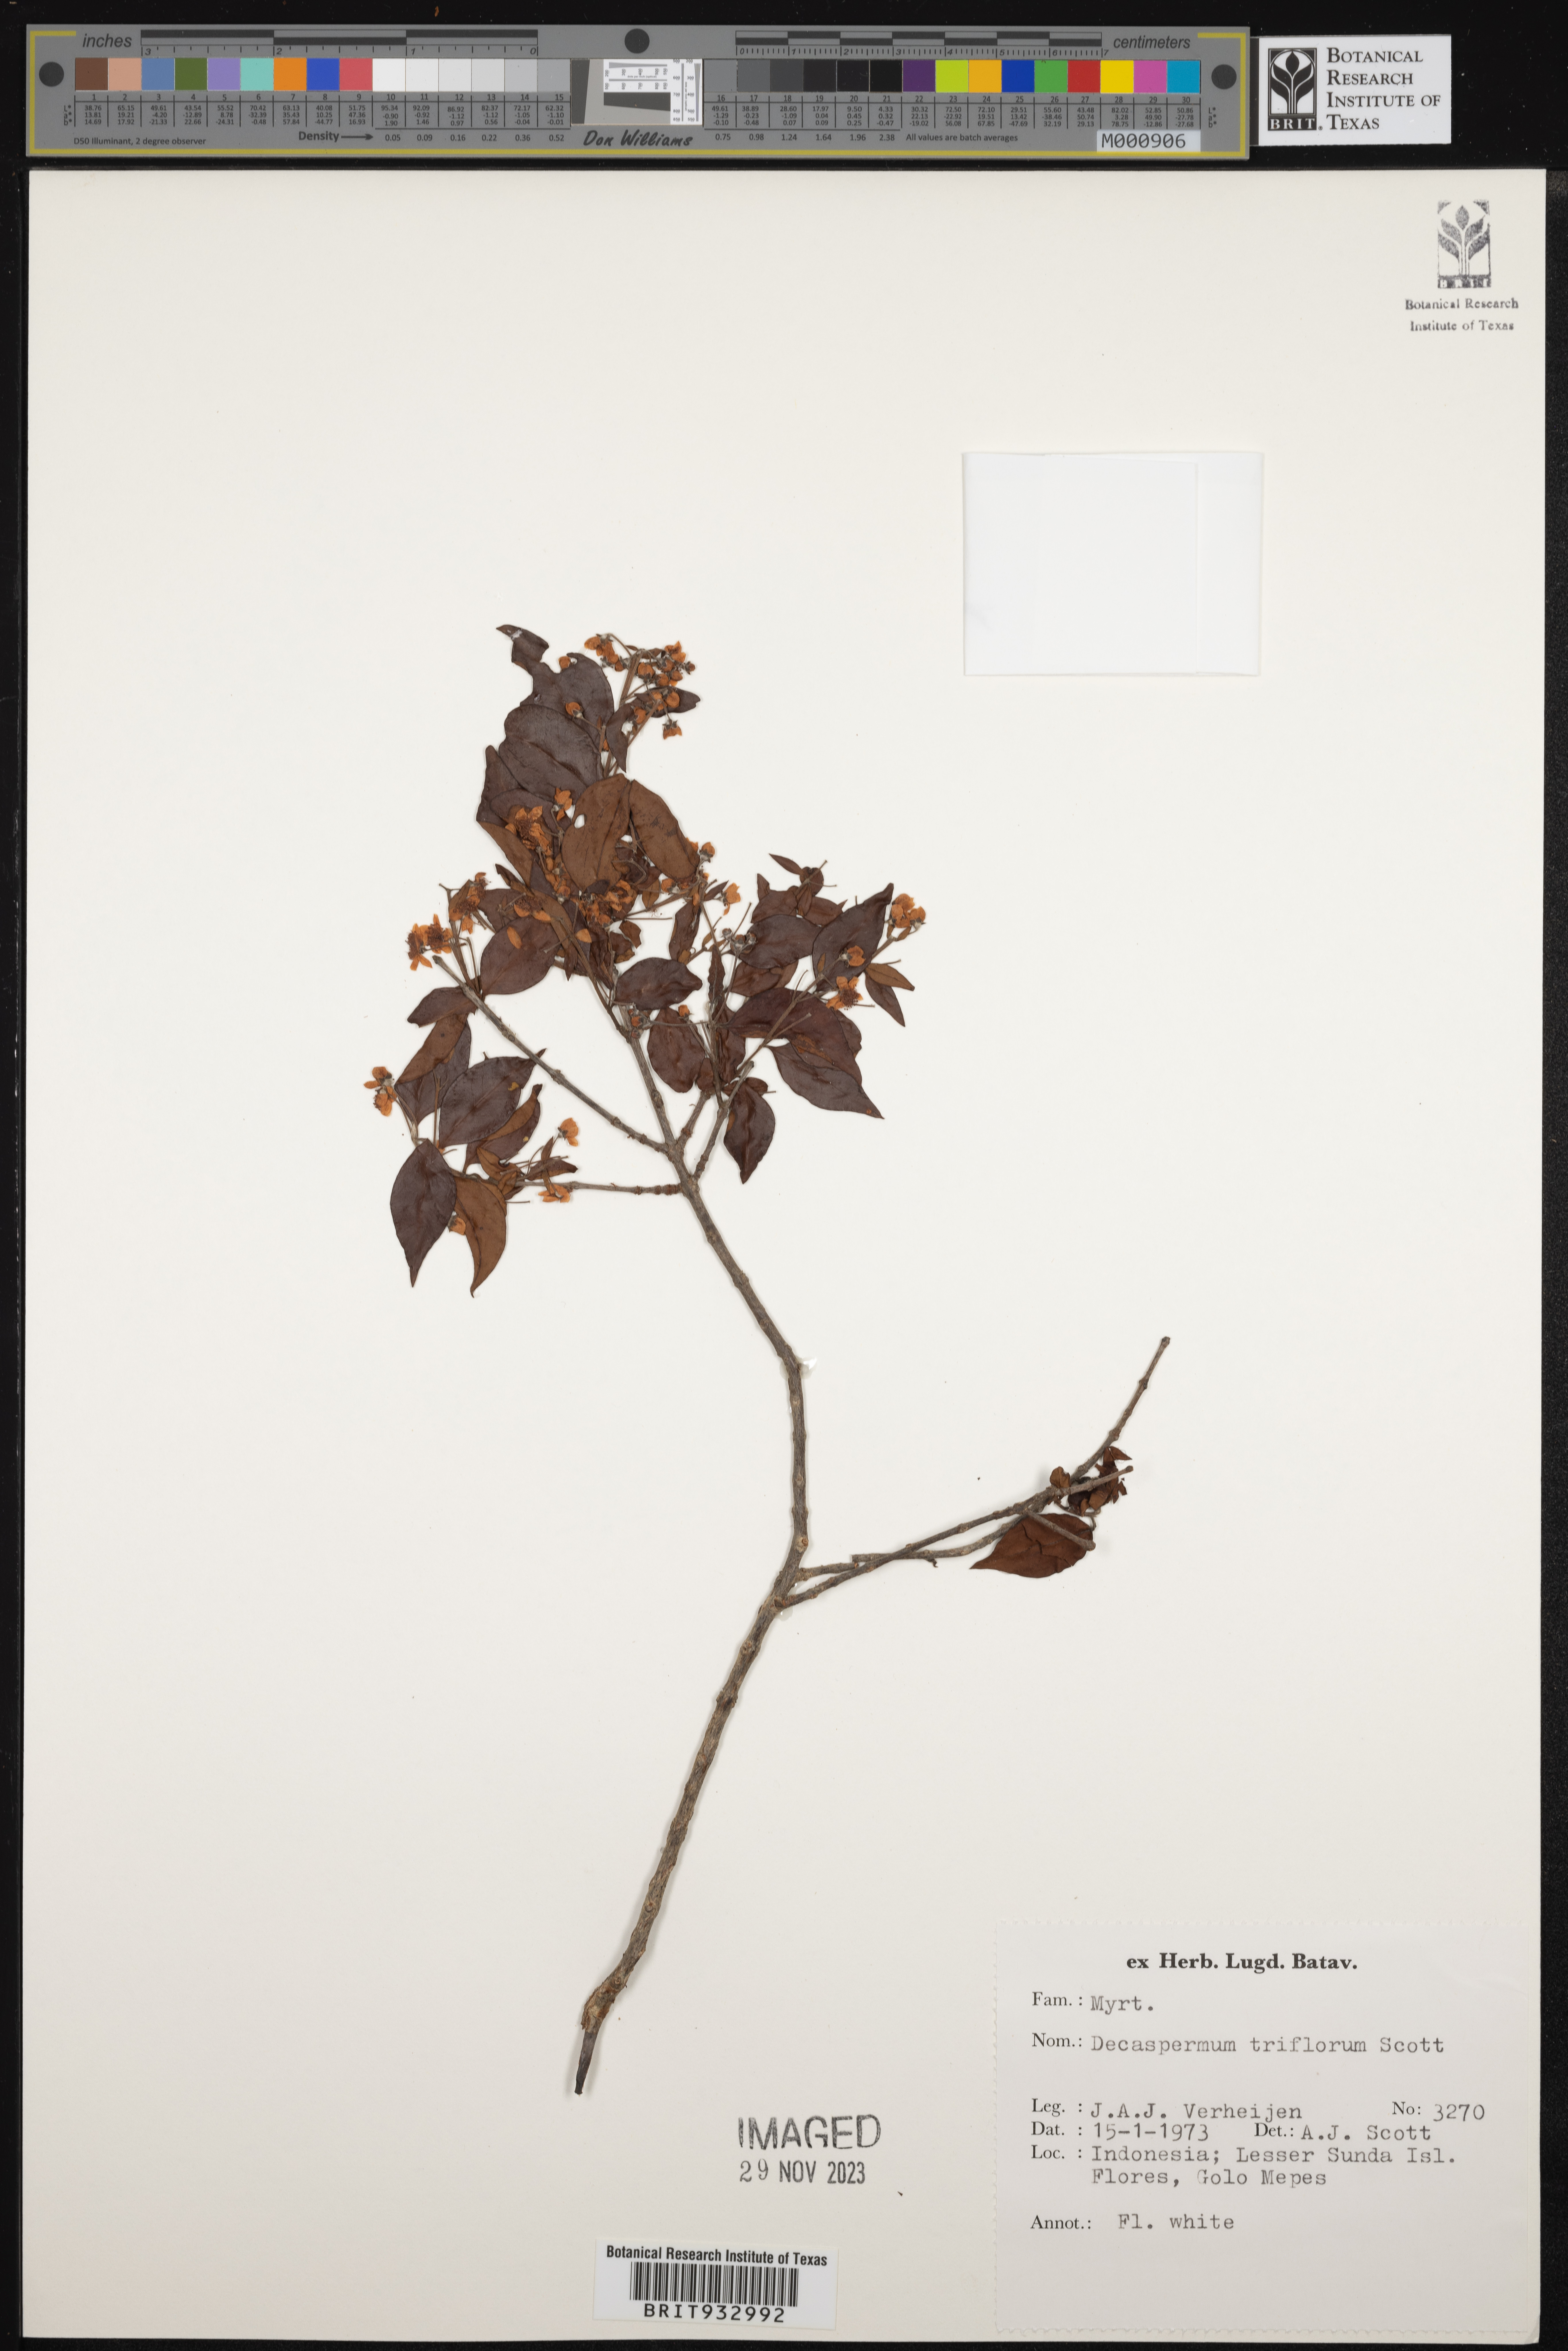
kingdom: Plantae
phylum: Tracheophyta
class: Magnoliopsida
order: Myrtales
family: Myrtaceae
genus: Decaspermum
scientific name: Decaspermum
